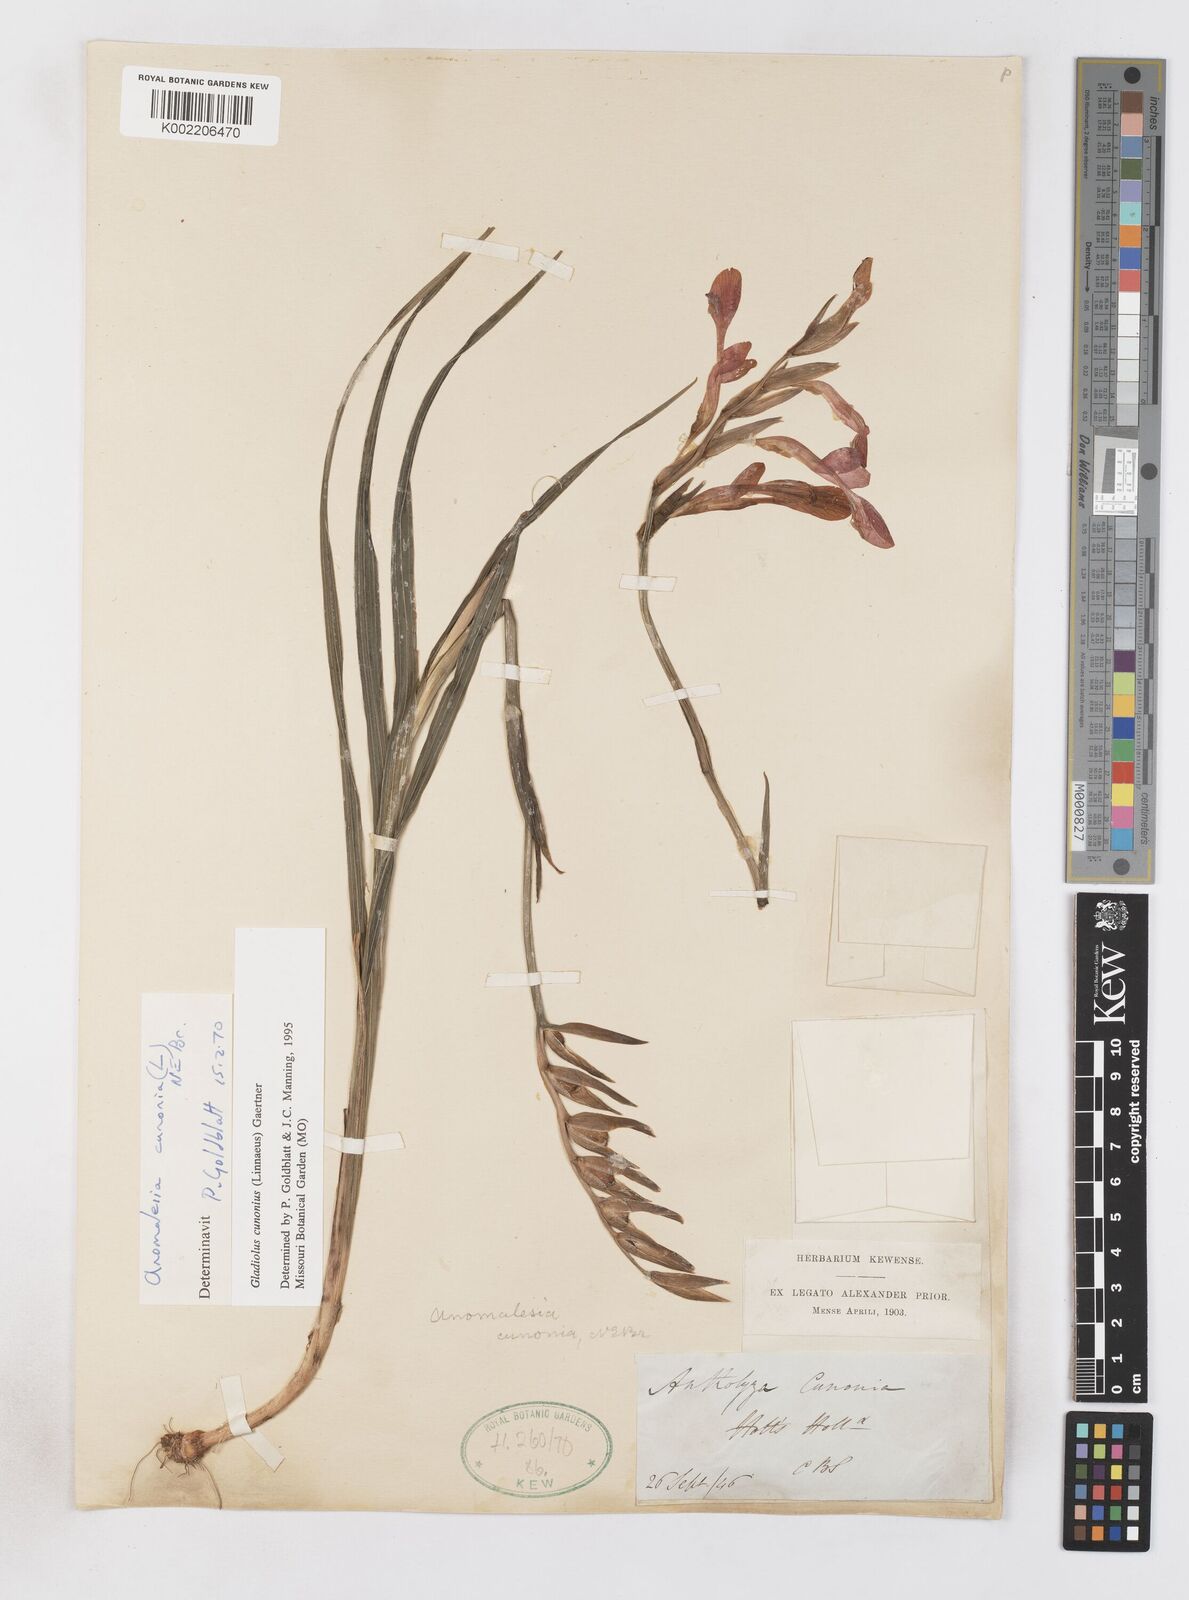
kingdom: Plantae
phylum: Tracheophyta
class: Liliopsida
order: Asparagales
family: Iridaceae
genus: Gladiolus
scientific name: Gladiolus cunonius
